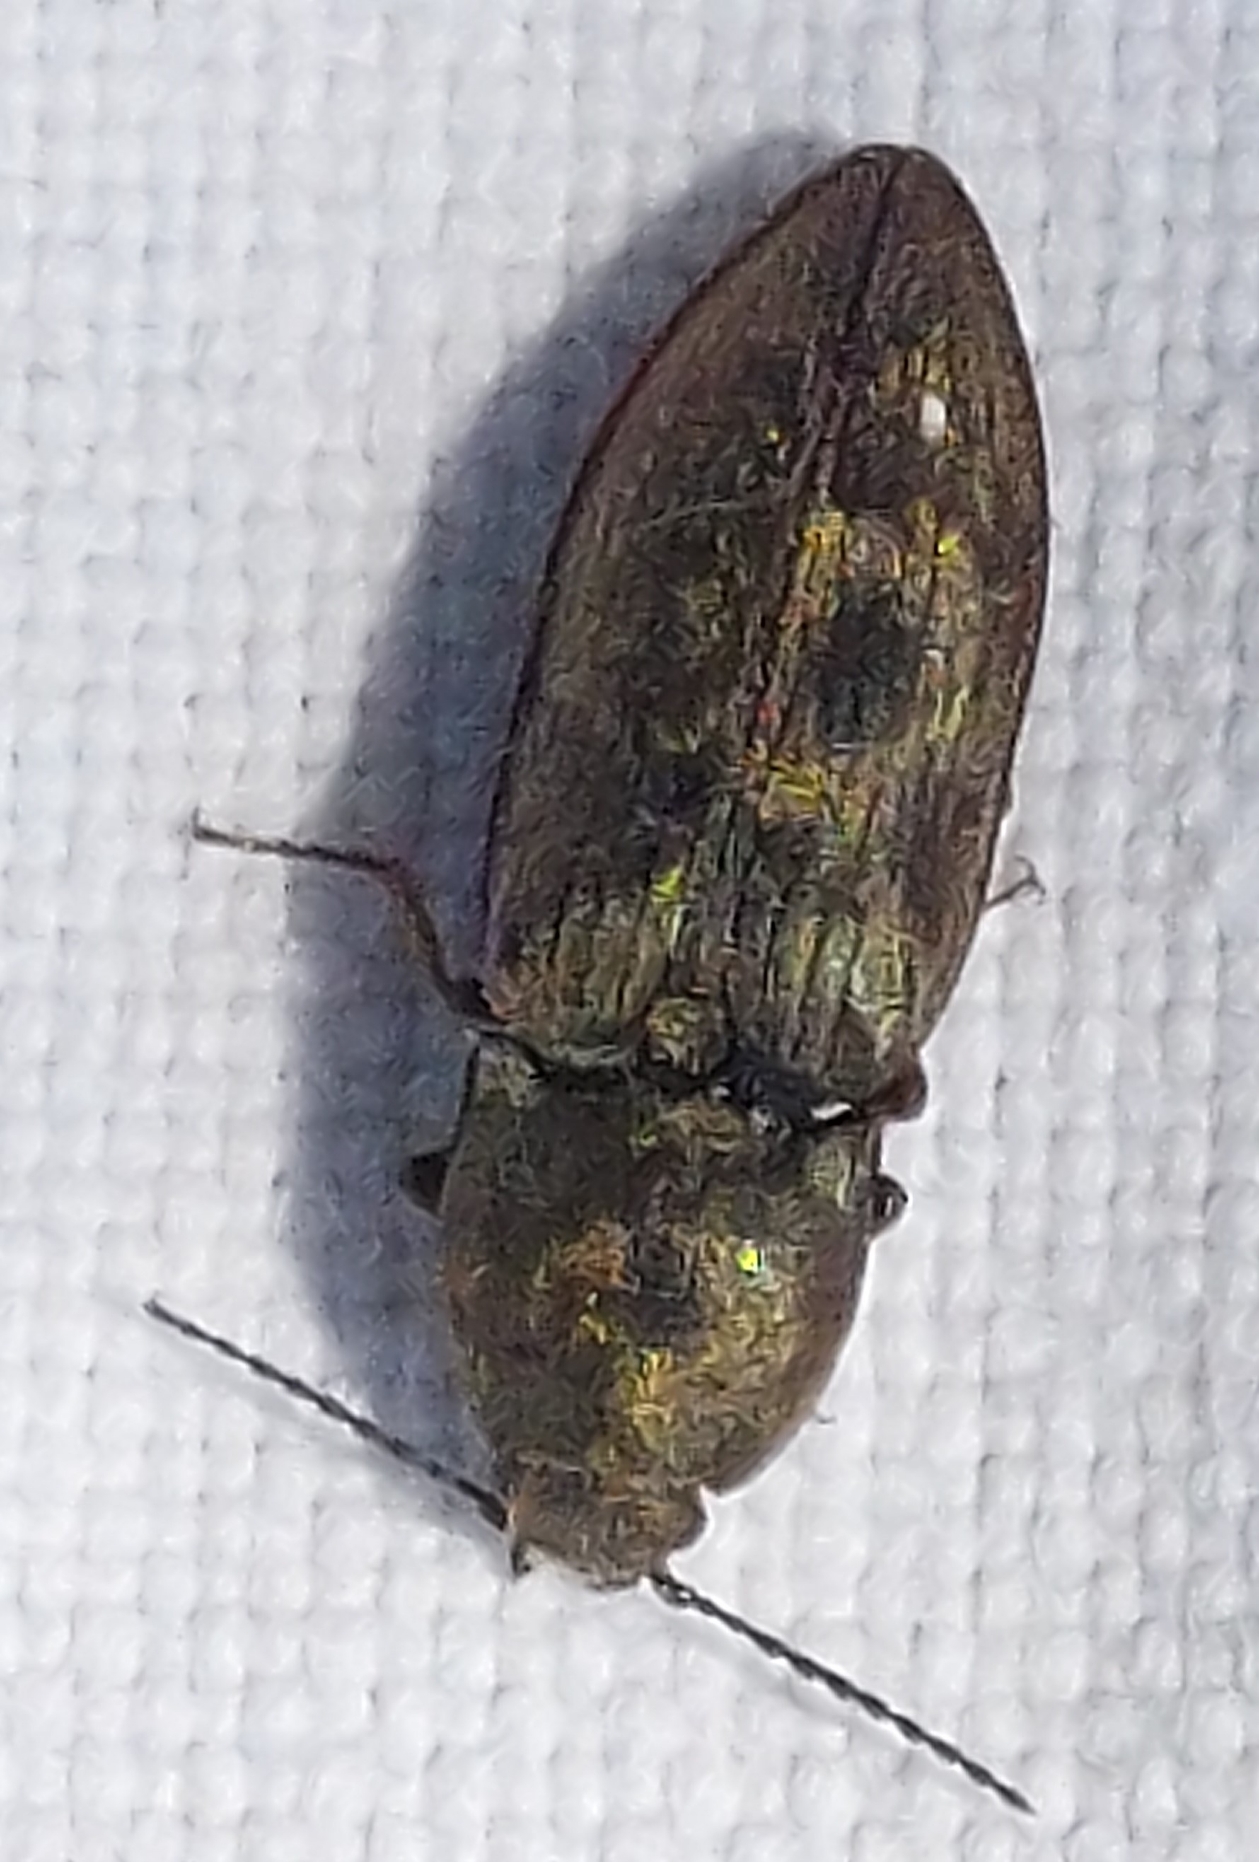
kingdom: Animalia
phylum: Arthropoda
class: Insecta
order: Coleoptera
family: Elateridae
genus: Prosternon
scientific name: Prosternon tessellatum
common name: Silkeglinsende jordsmælder
